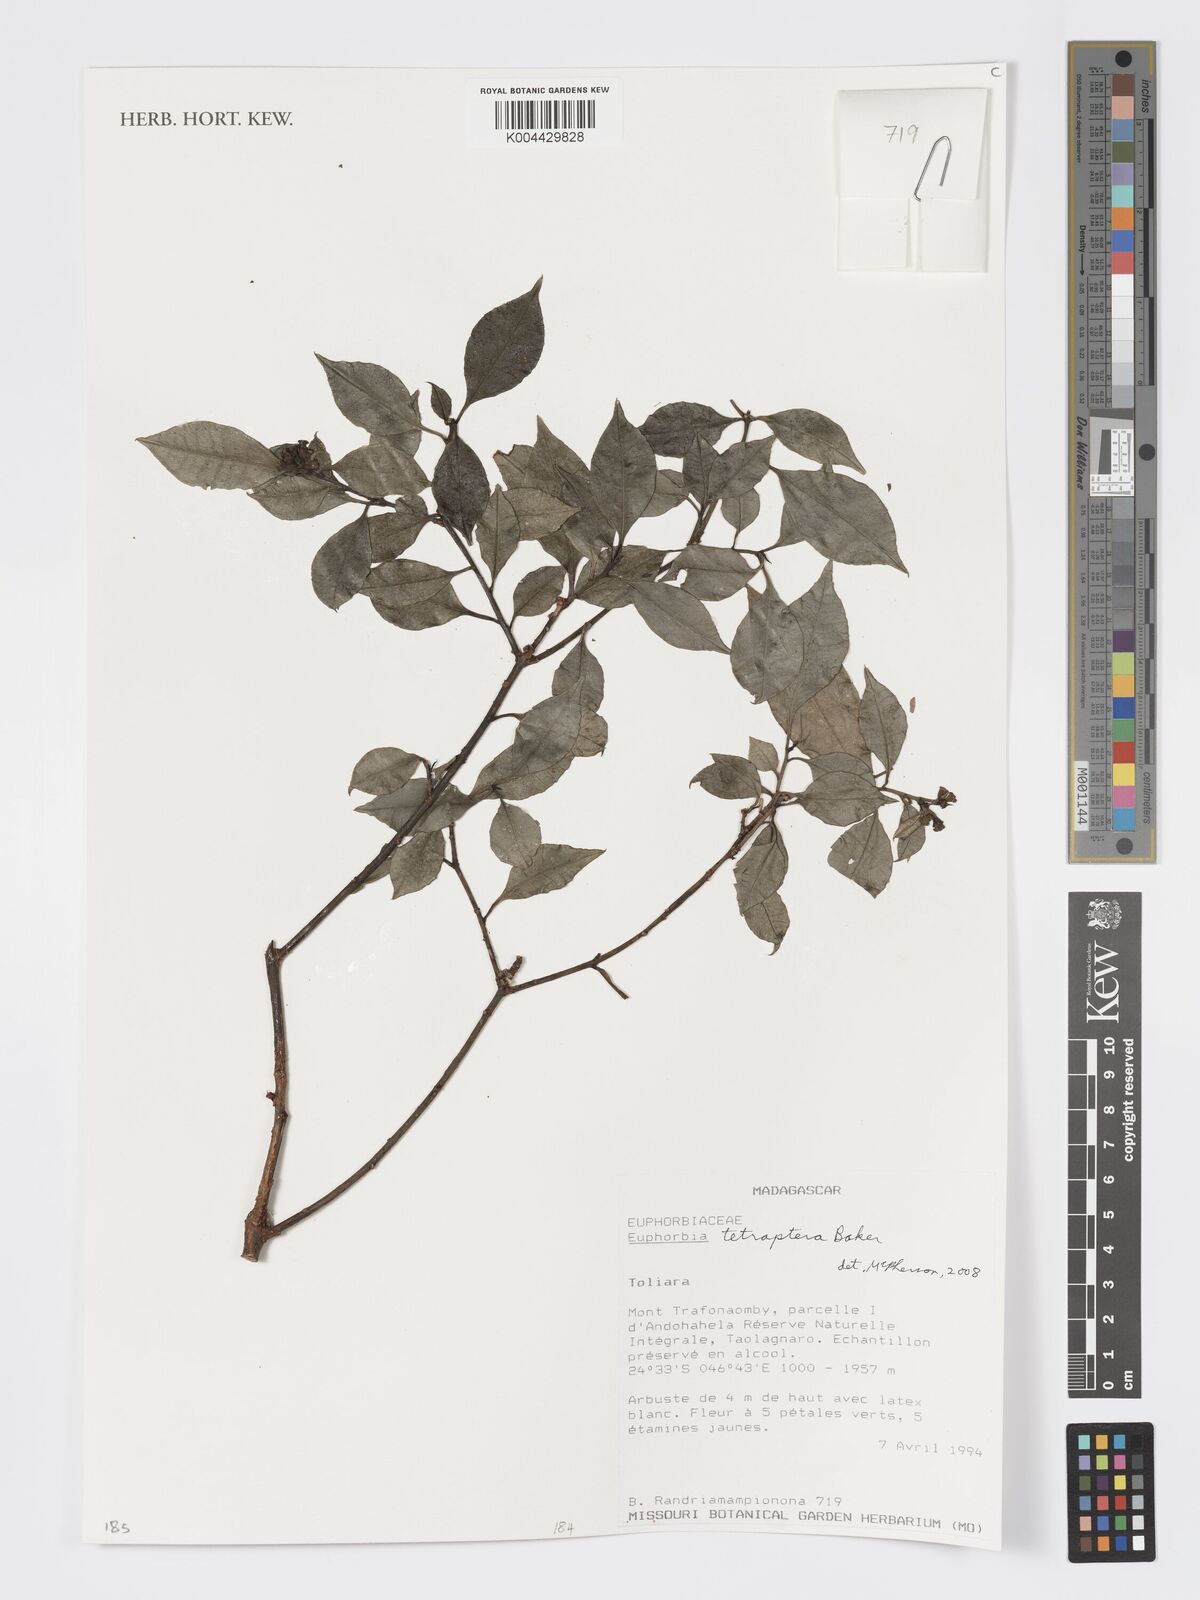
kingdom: Plantae
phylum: Tracheophyta
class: Magnoliopsida
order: Malpighiales
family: Euphorbiaceae
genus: Euphorbia
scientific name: Euphorbia tetraptera
